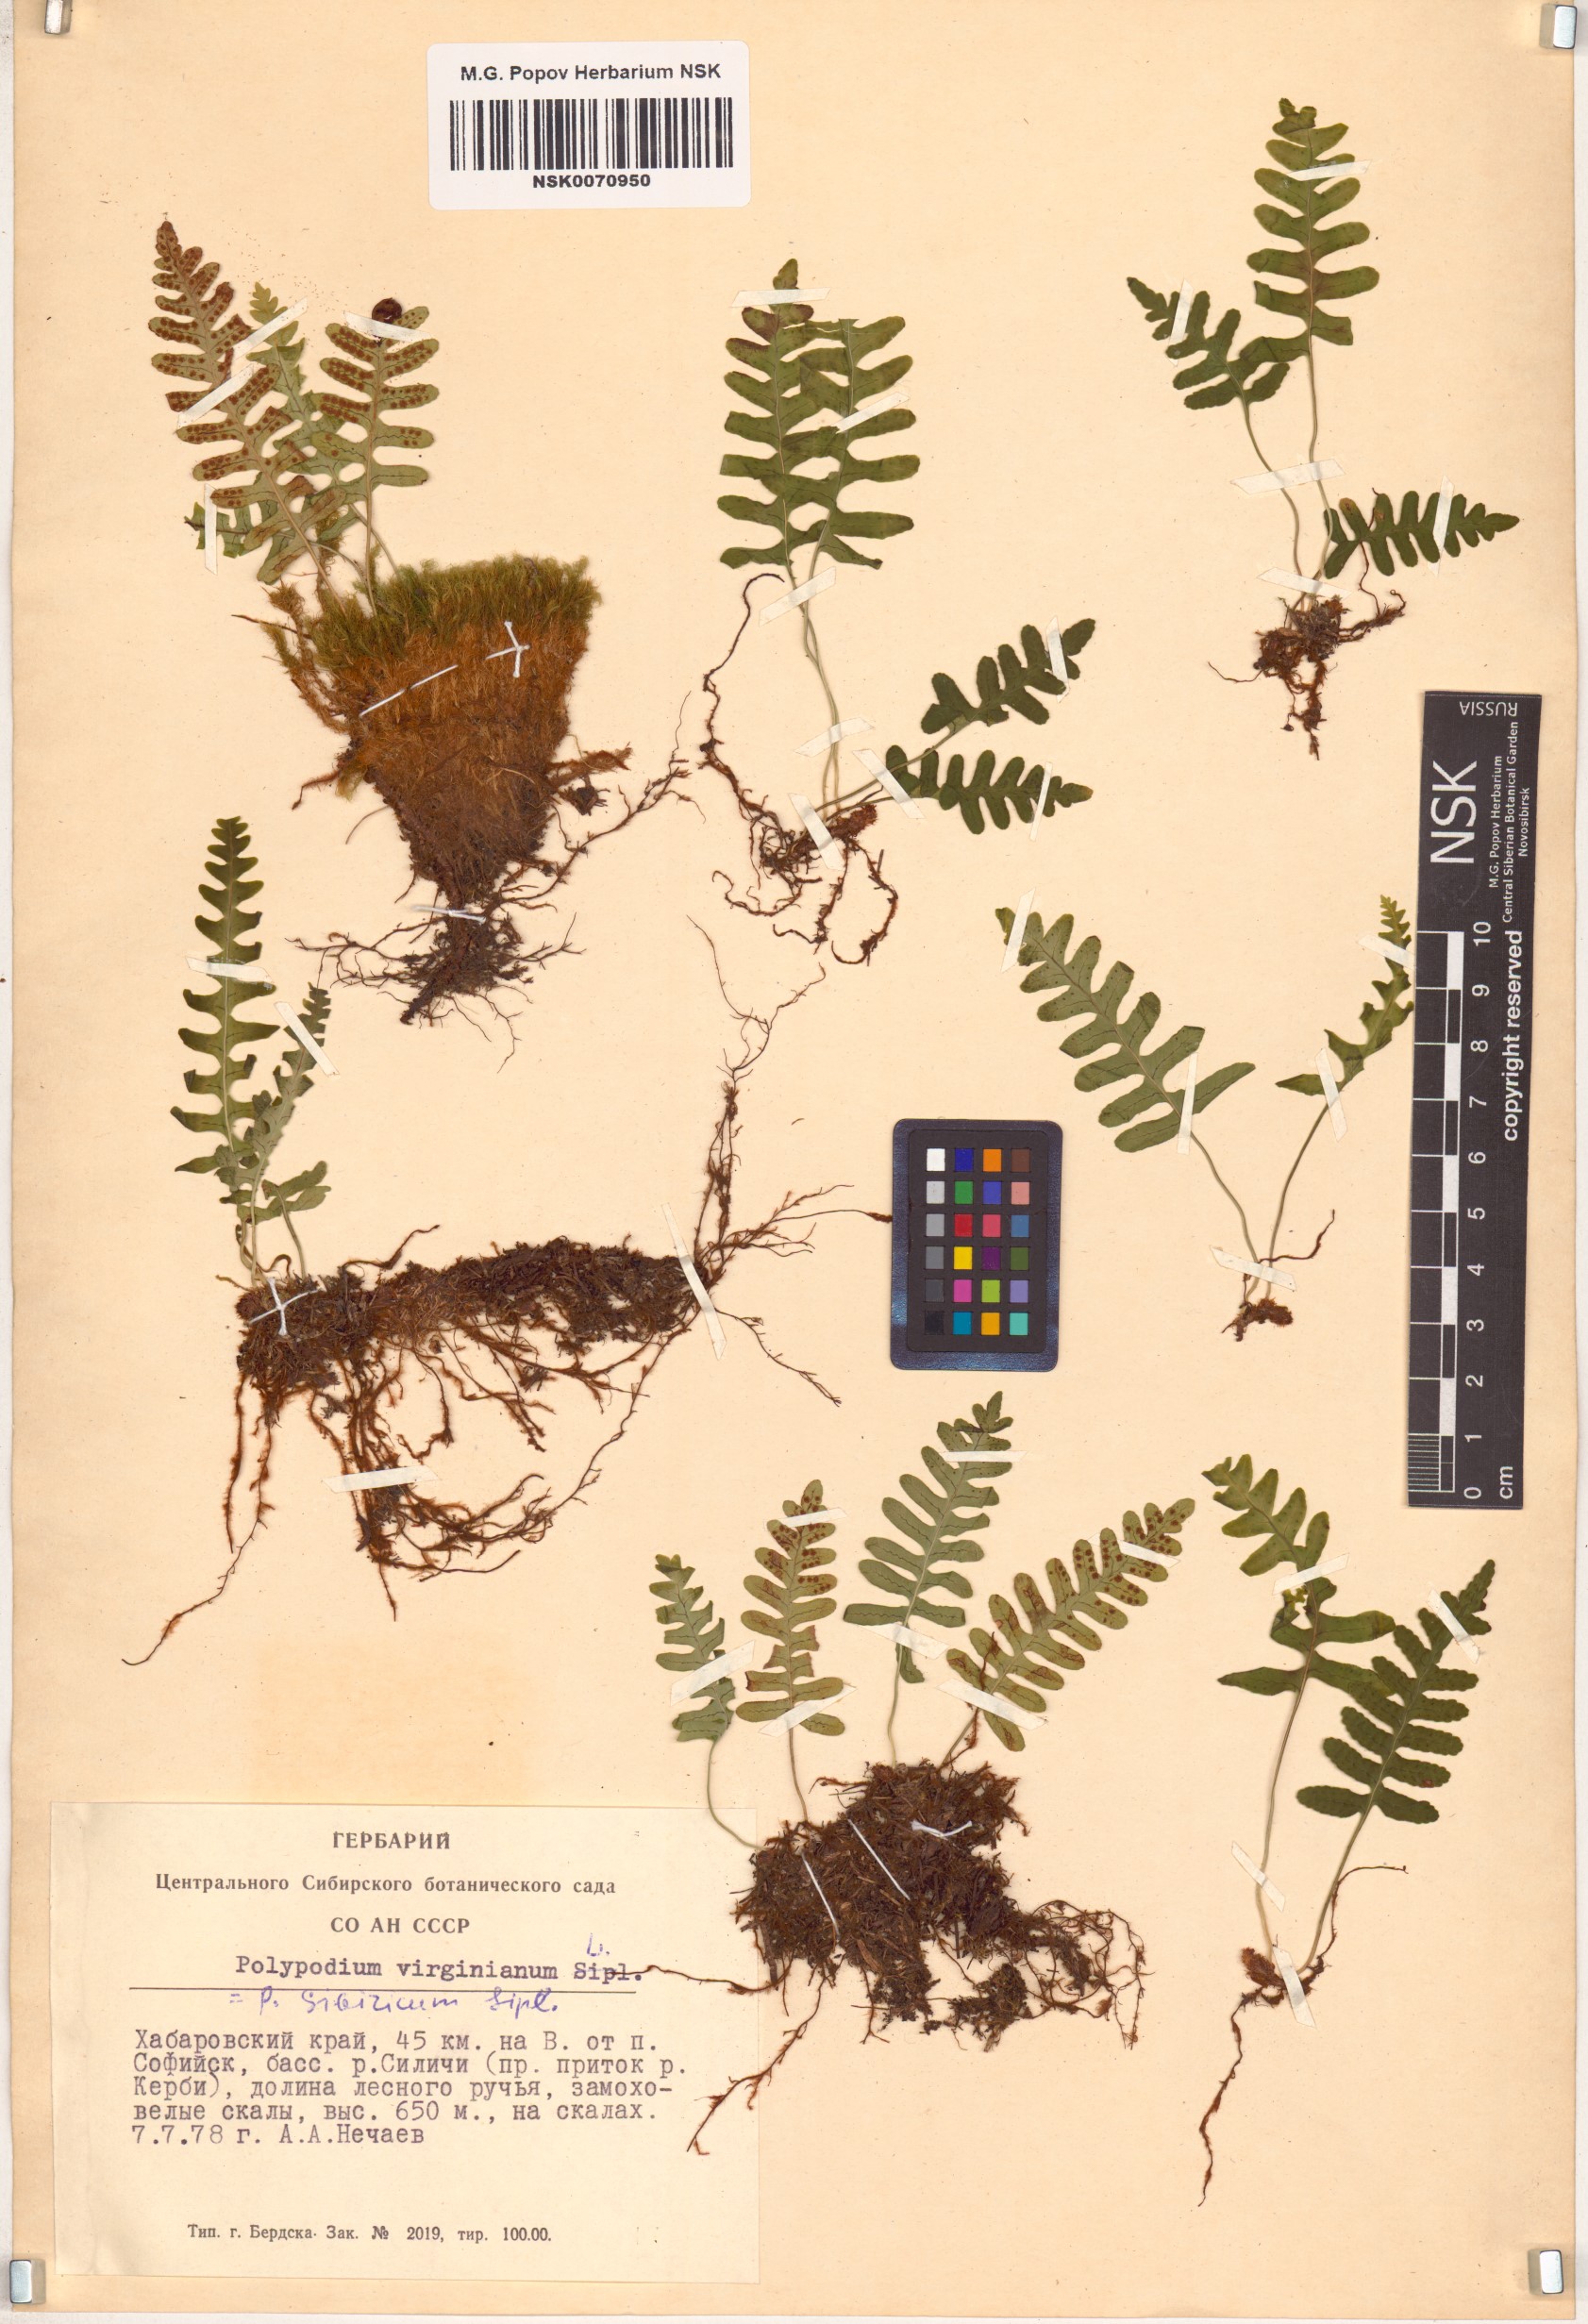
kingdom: Plantae
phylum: Tracheophyta
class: Polypodiopsida
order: Polypodiales
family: Polypodiaceae
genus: Polypodium
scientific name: Polypodium vulgare
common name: Common polypody
